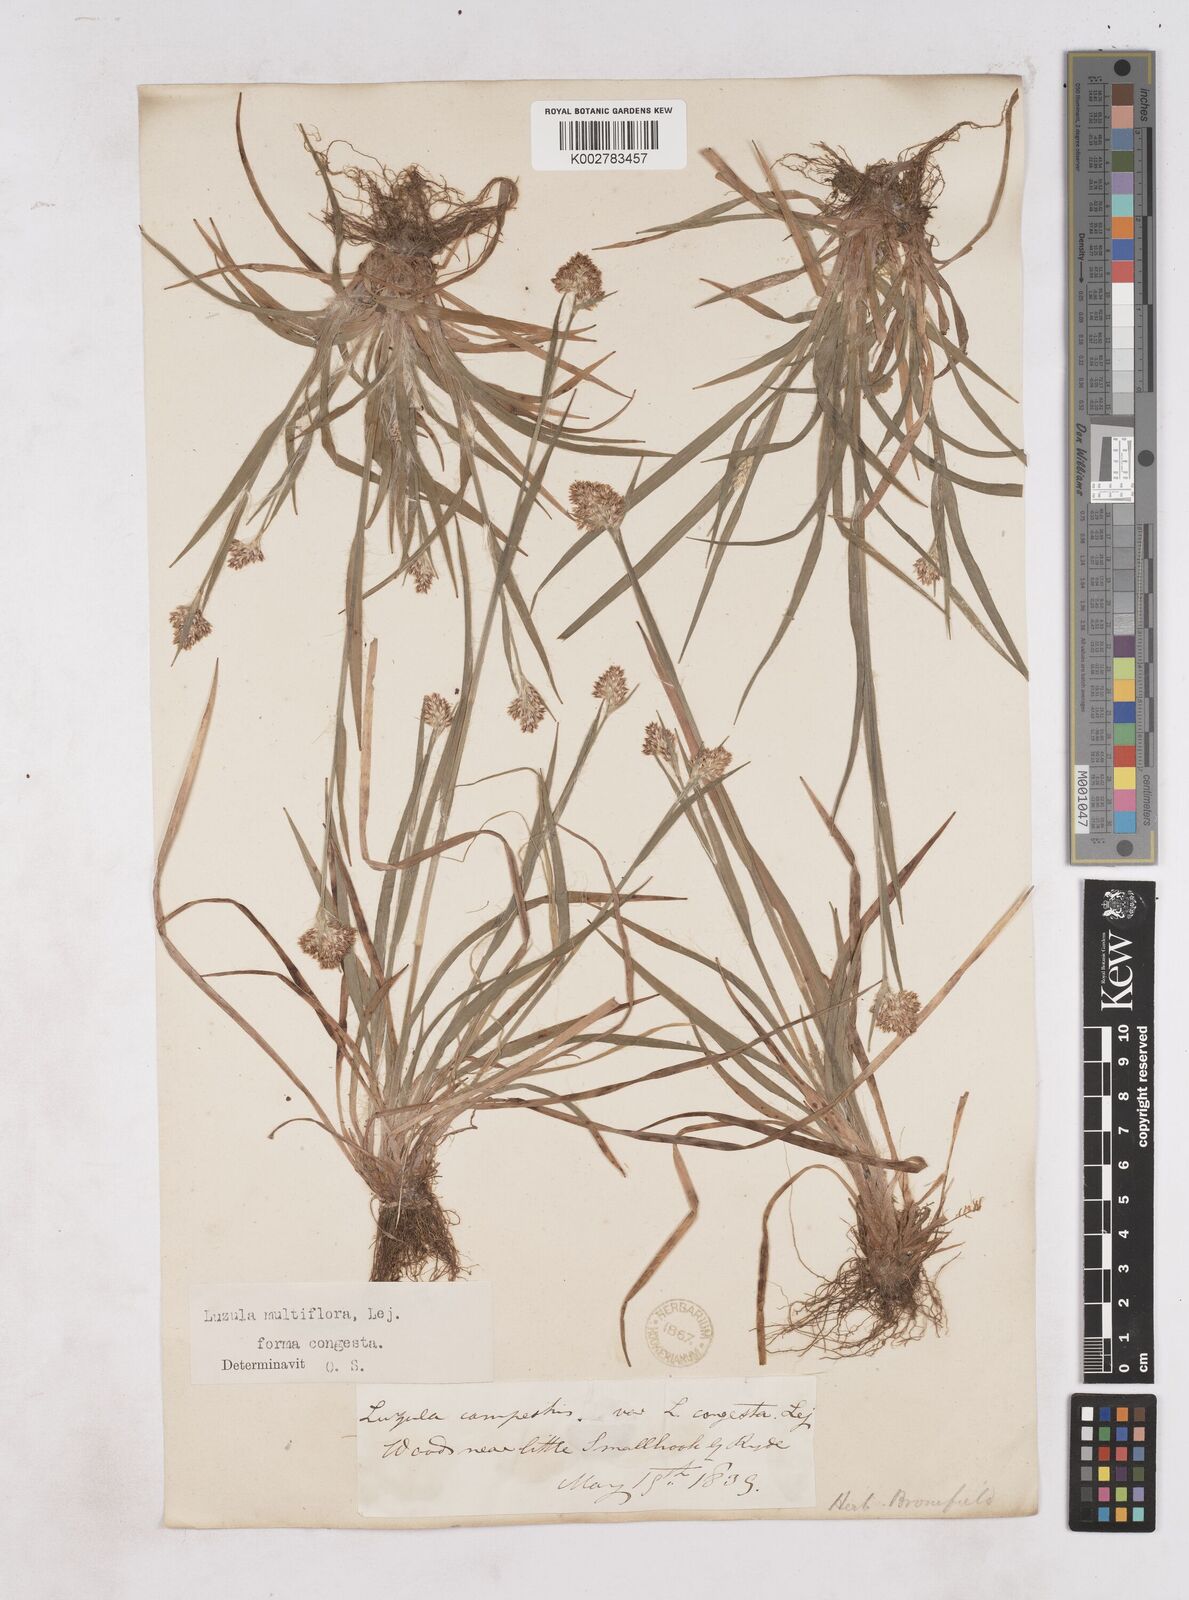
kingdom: Plantae
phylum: Tracheophyta
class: Liliopsida
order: Poales
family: Juncaceae
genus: Luzula
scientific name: Luzula campestris
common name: Field wood-rush
